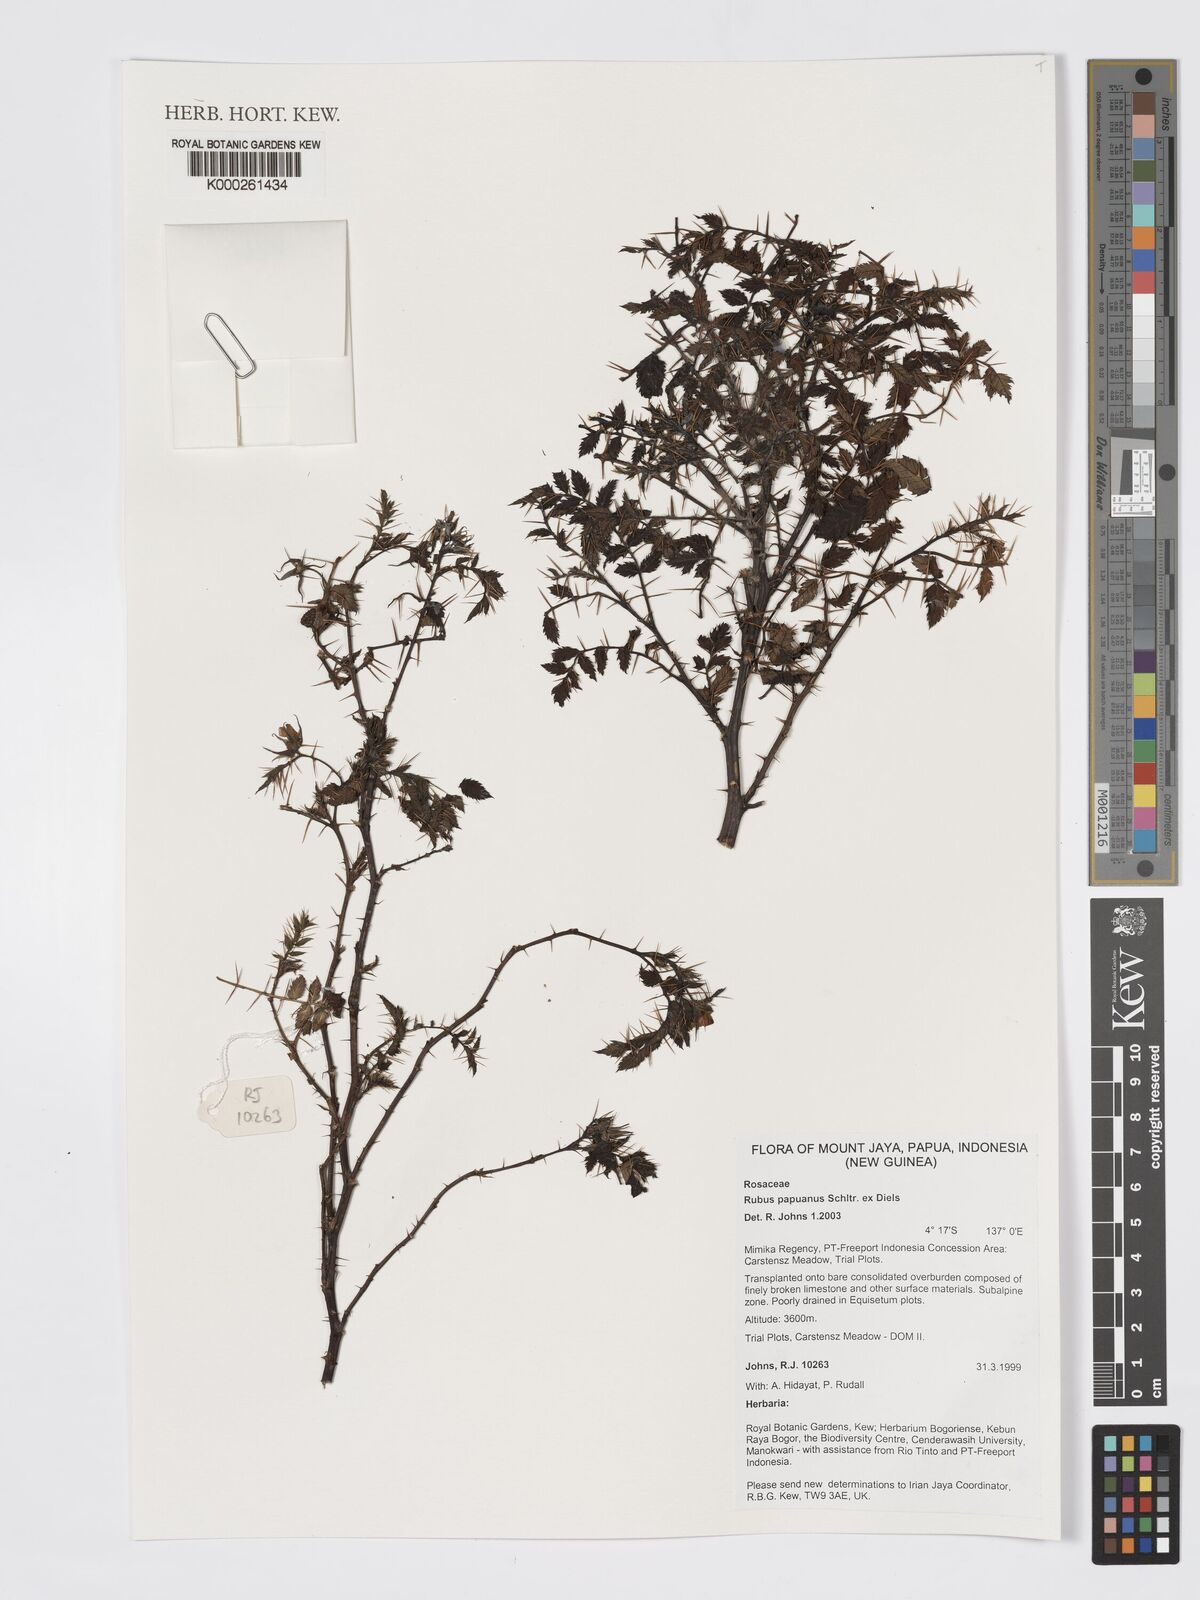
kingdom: Plantae
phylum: Tracheophyta
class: Magnoliopsida
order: Rosales
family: Rosaceae
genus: Rubus
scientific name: Rubus papuanus
